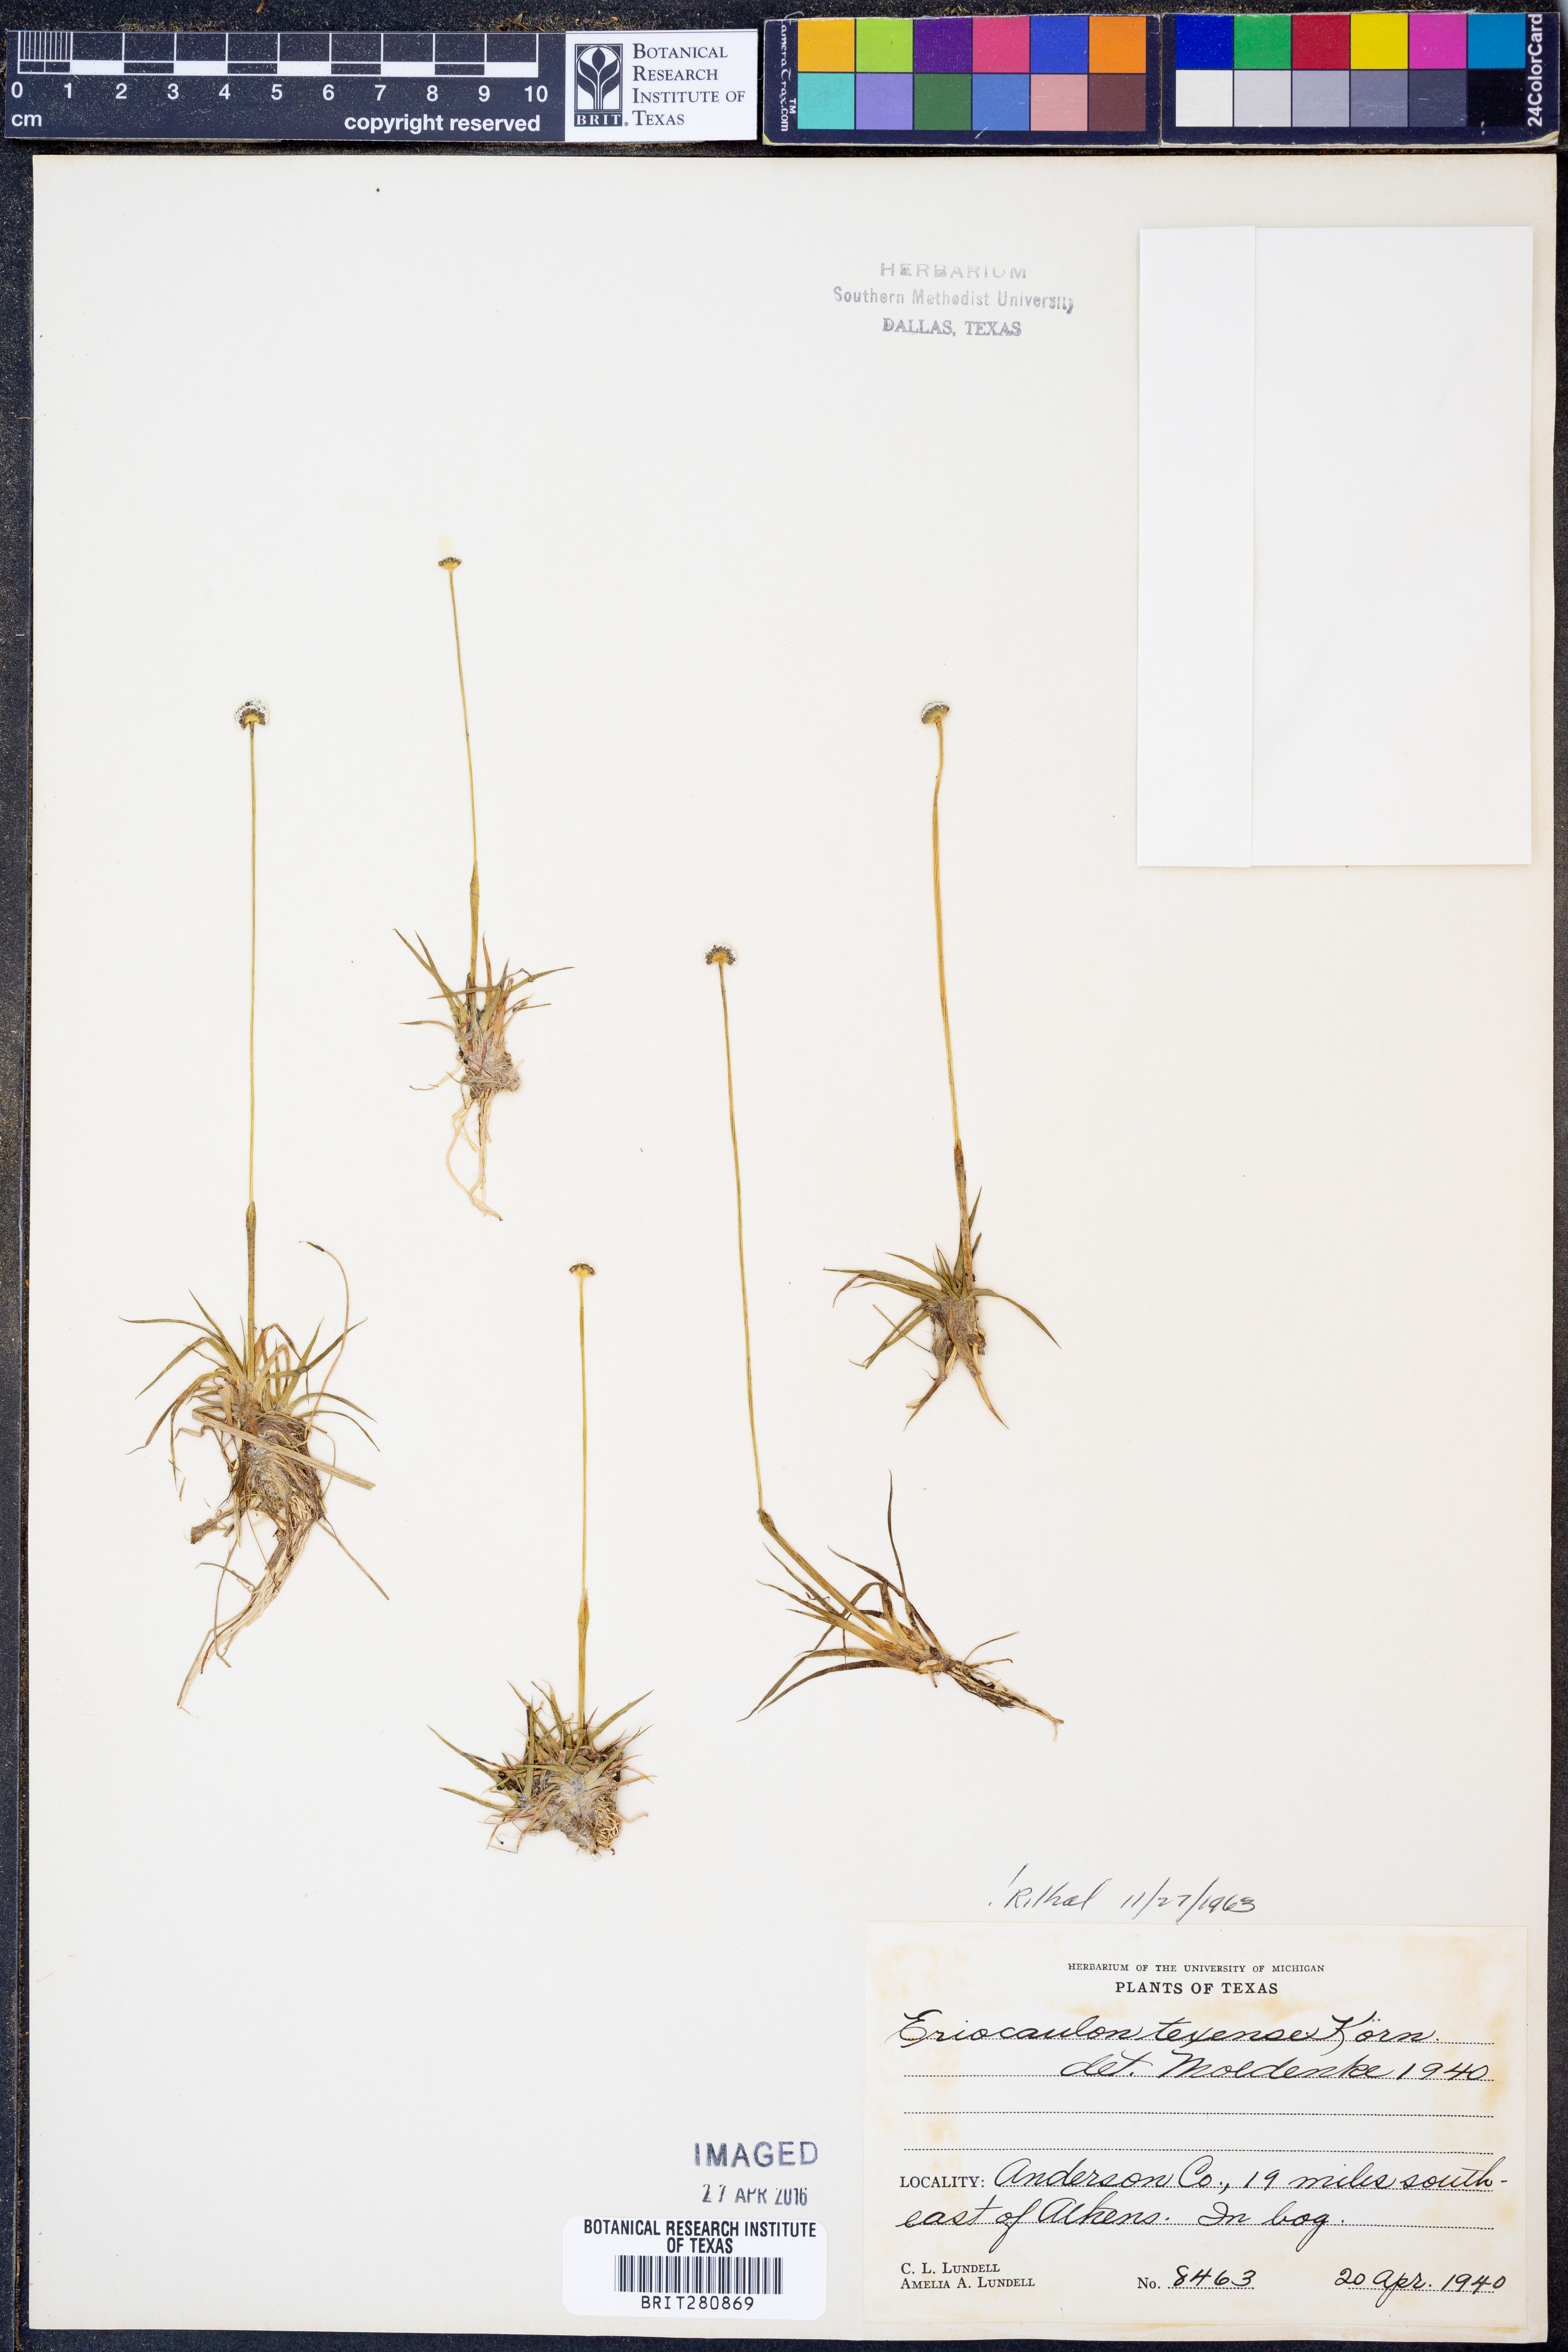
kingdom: Plantae
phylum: Tracheophyta
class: Liliopsida
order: Poales
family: Eriocaulaceae
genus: Eriocaulon
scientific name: Eriocaulon texense
